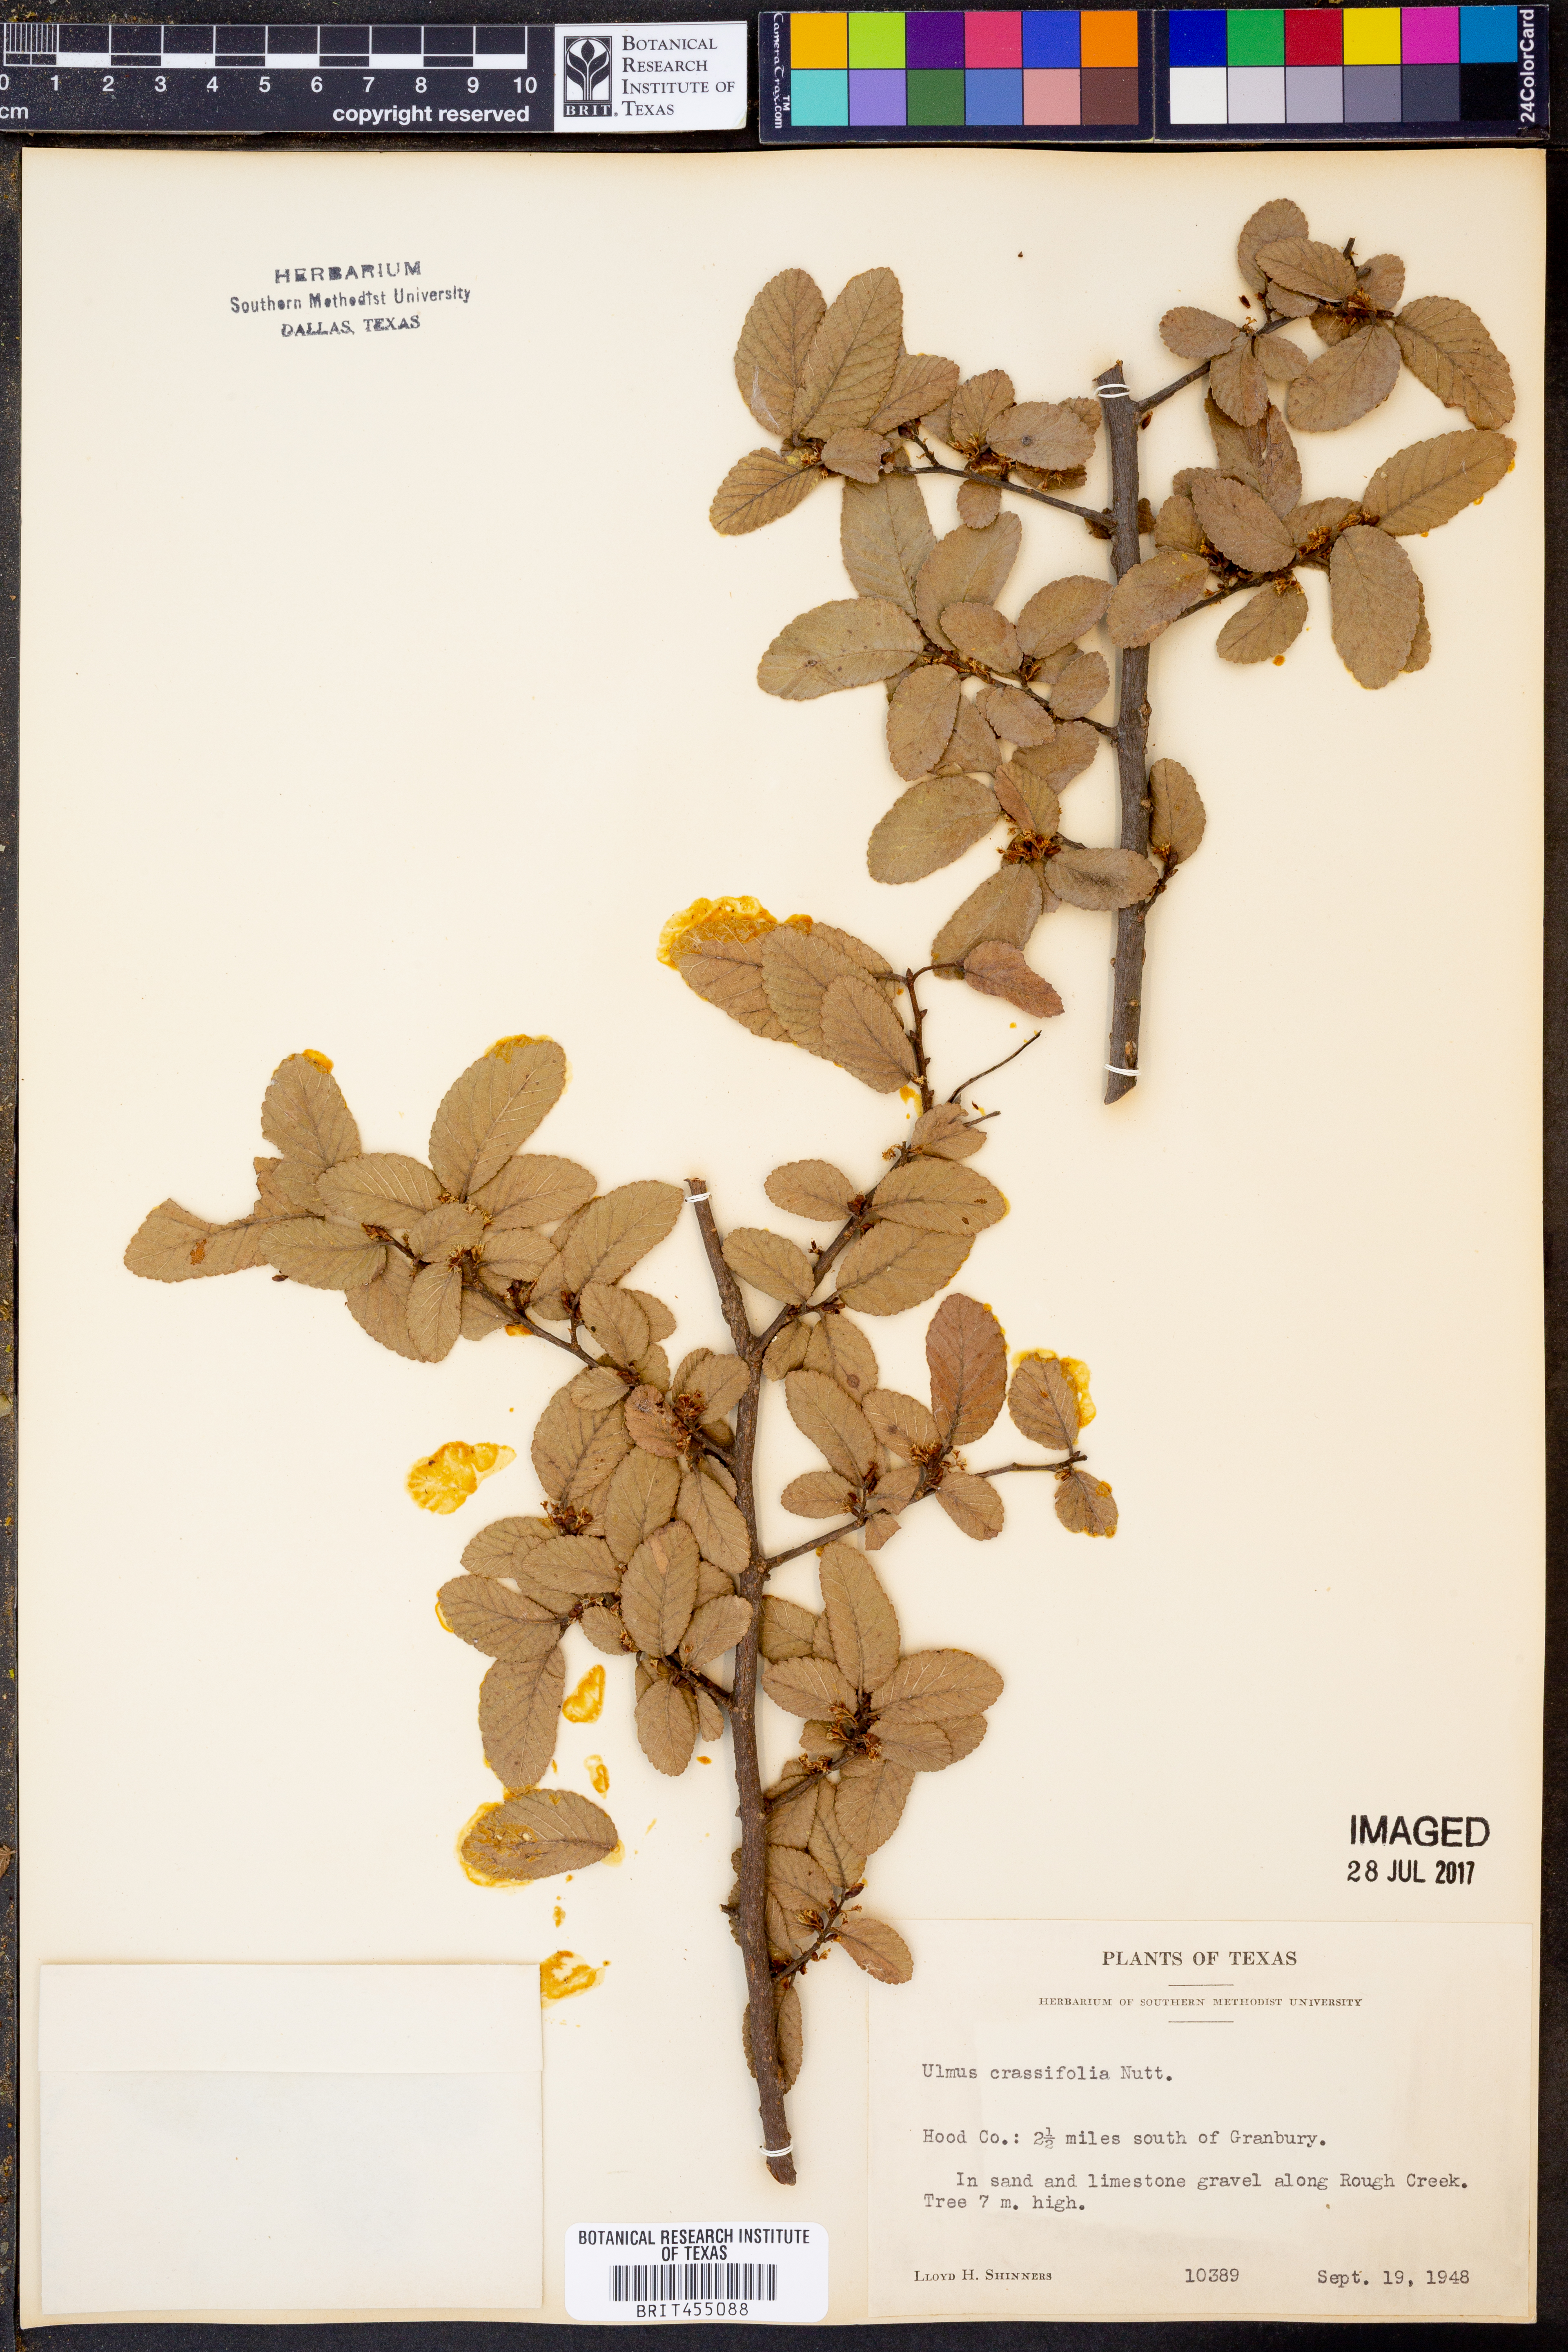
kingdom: Plantae
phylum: Tracheophyta
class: Magnoliopsida
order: Rosales
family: Ulmaceae
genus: Ulmus
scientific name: Ulmus crassifolia
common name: Basket elm
